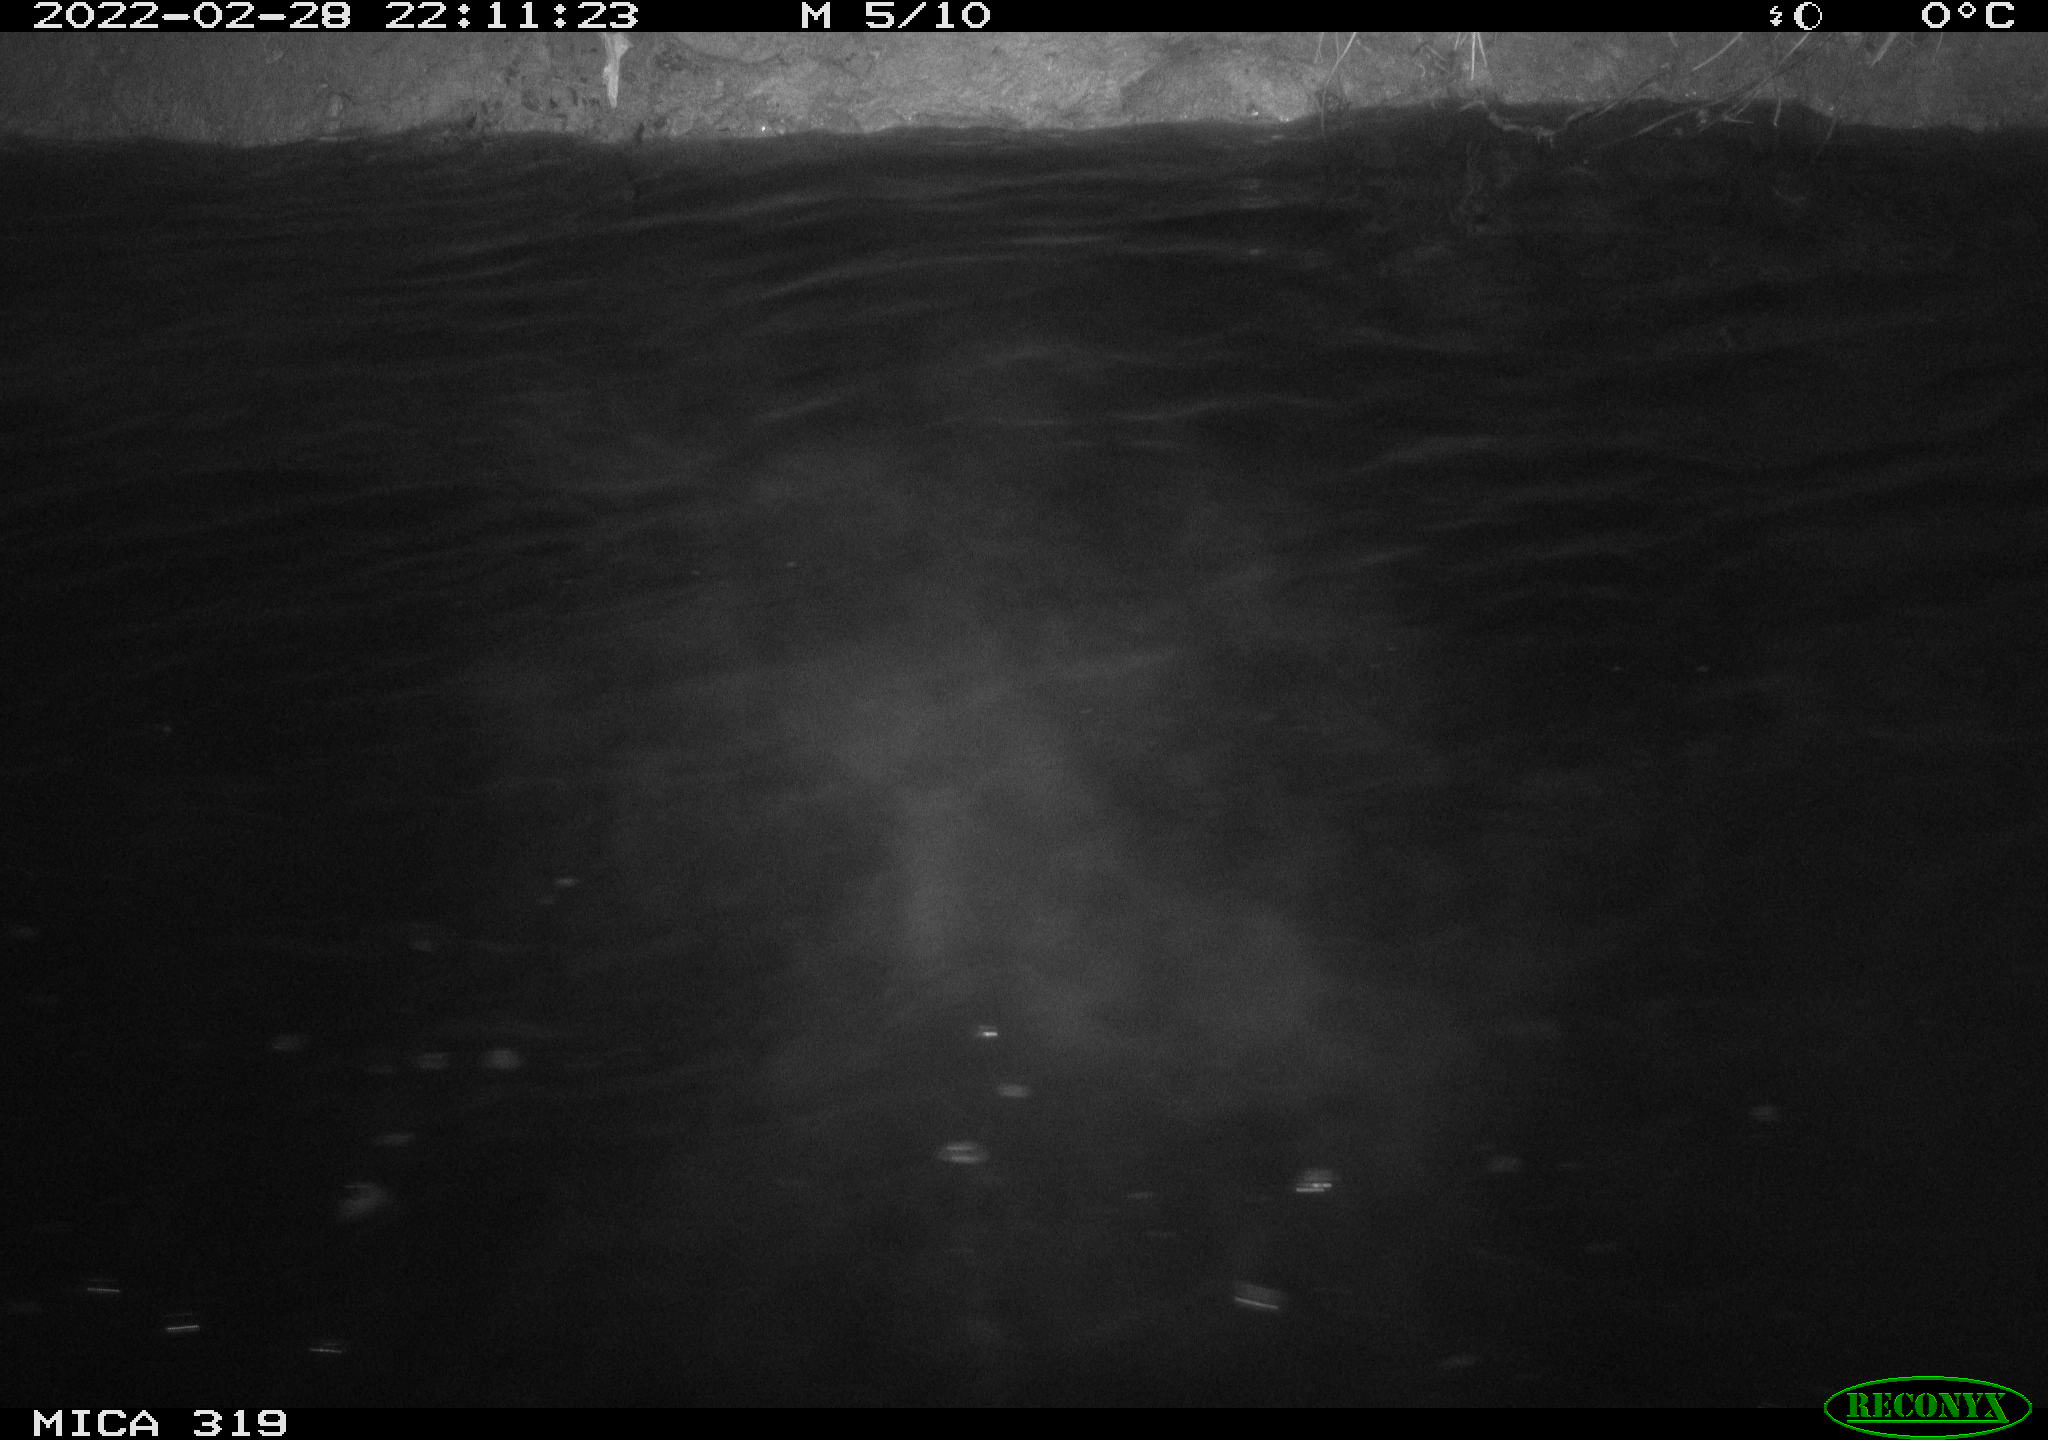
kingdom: Animalia
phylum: Chordata
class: Aves
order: Anseriformes
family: Anatidae
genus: Anas
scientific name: Anas platyrhynchos
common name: Mallard
